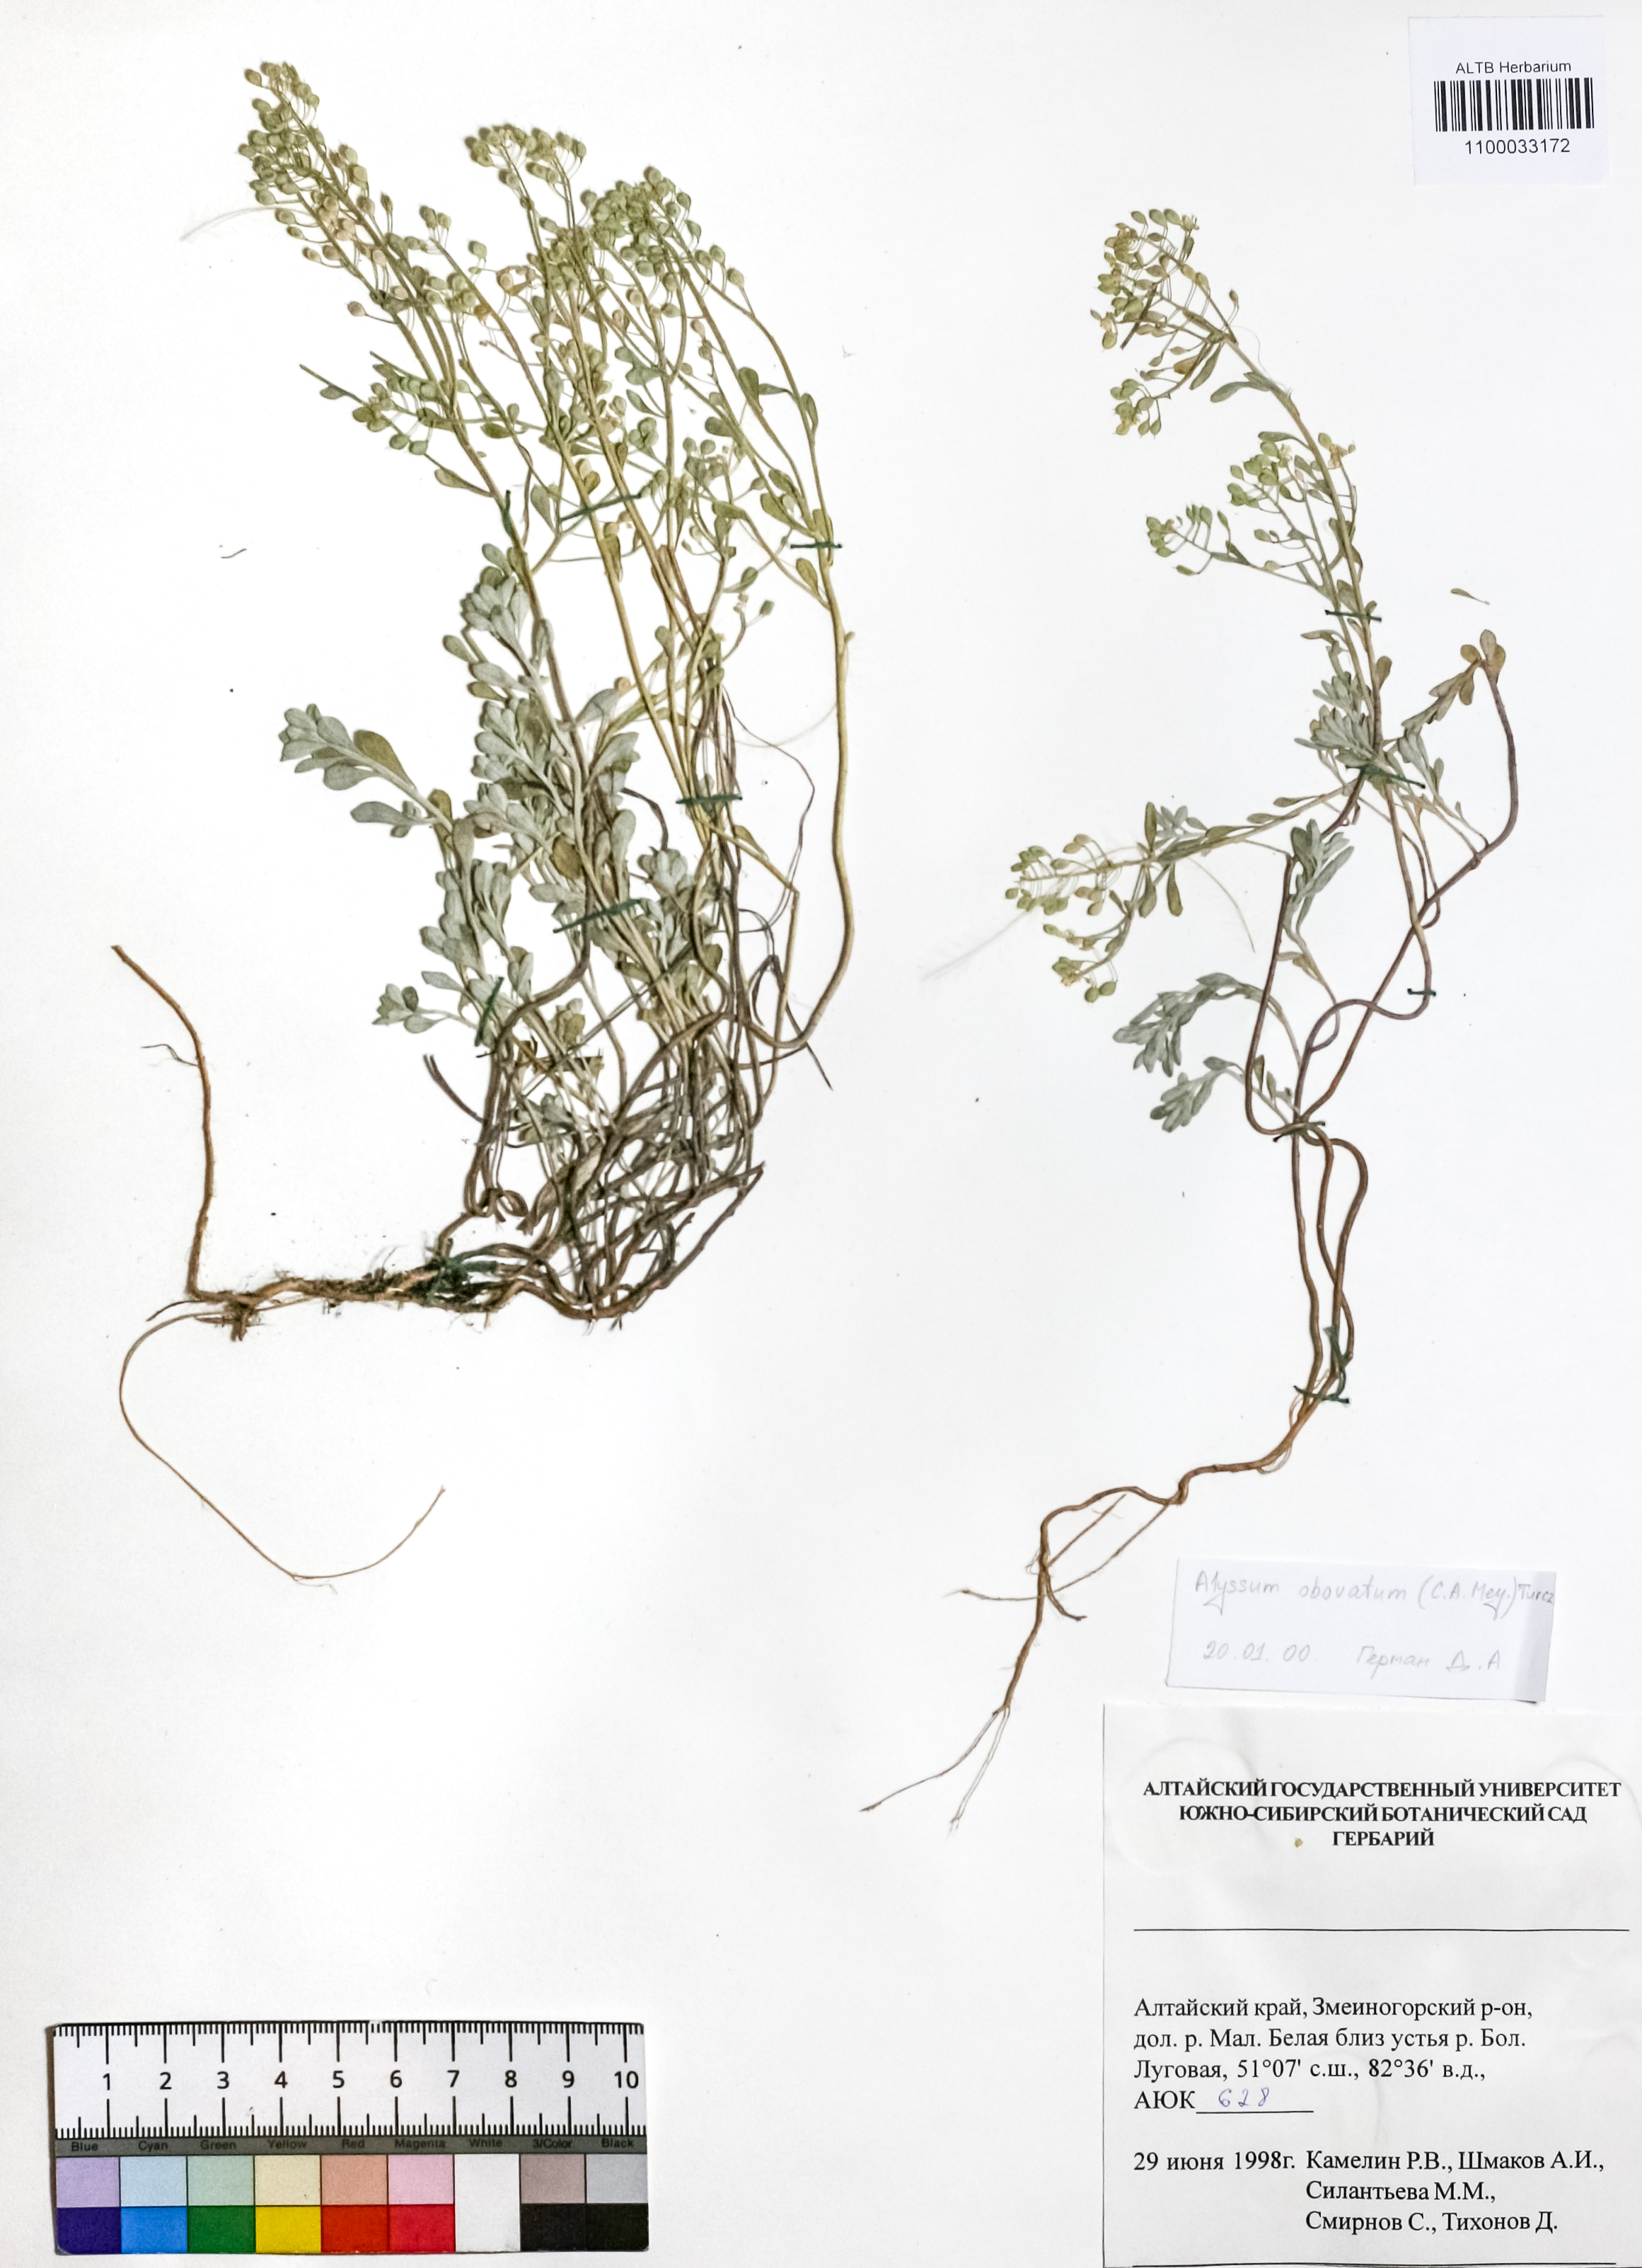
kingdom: Plantae
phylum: Tracheophyta
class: Magnoliopsida
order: Brassicales
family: Brassicaceae
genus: Odontarrhena
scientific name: Odontarrhena obovata
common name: American alyssum
